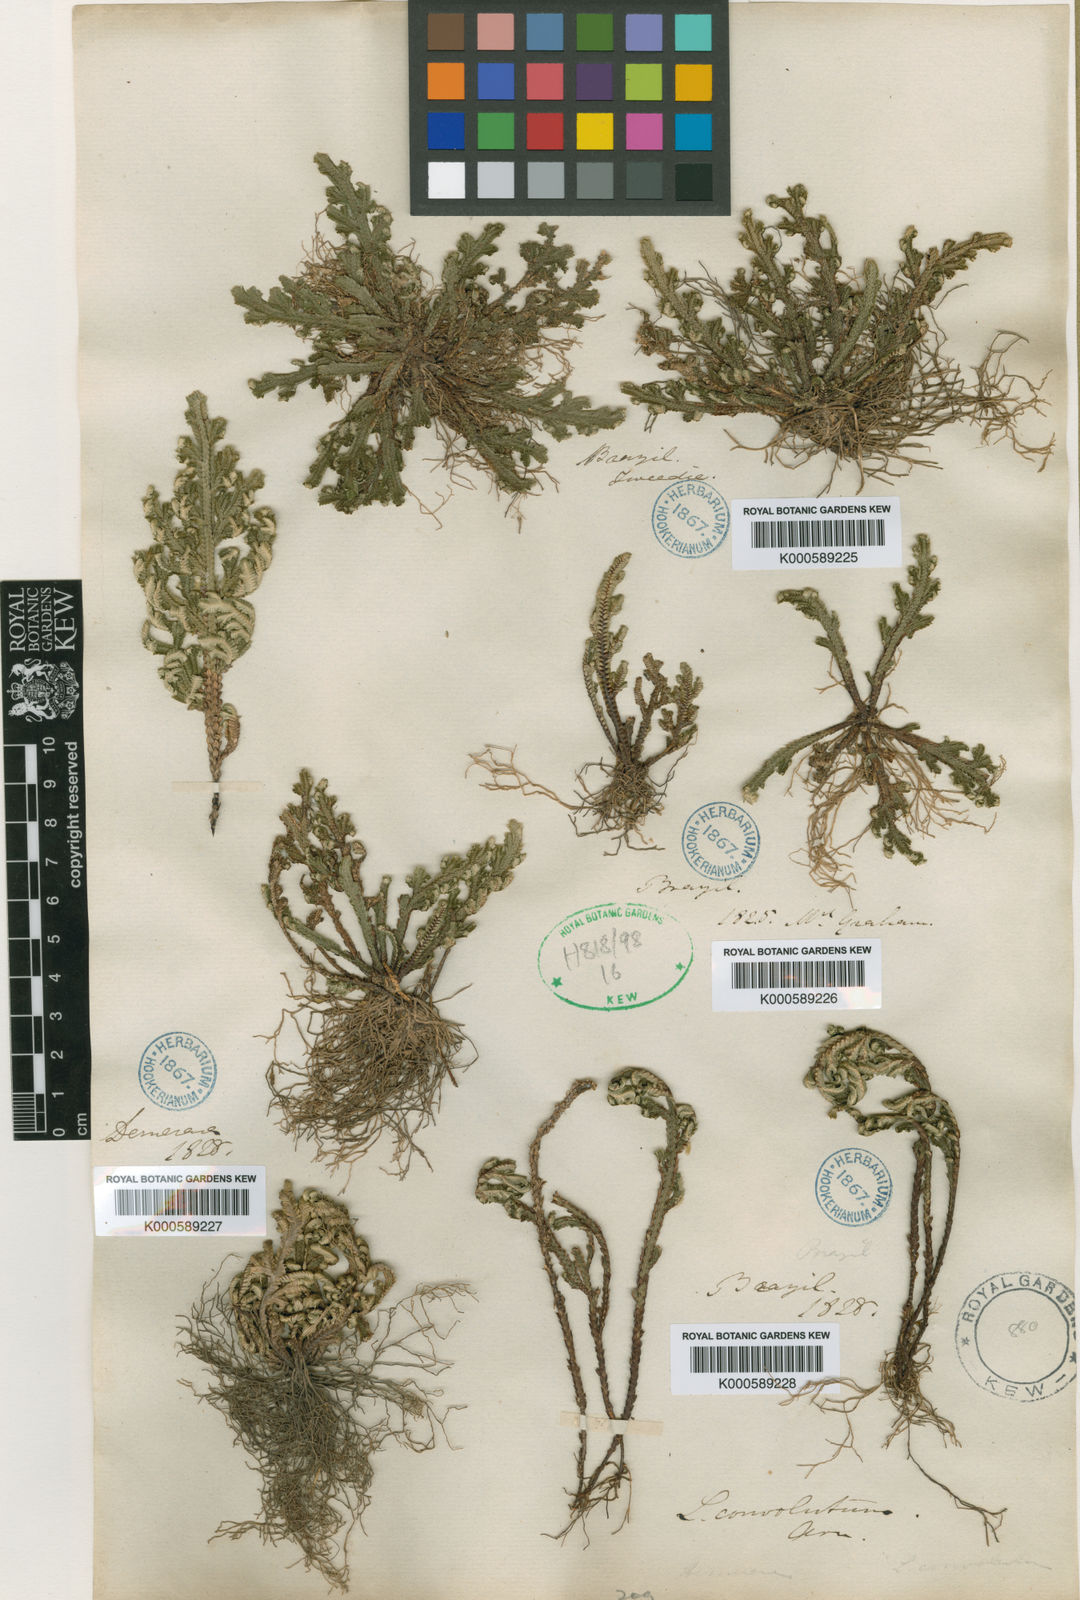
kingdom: Plantae
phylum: Tracheophyta
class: Lycopodiopsida
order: Selaginellales
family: Selaginellaceae
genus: Selaginella
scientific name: Selaginella convoluta
